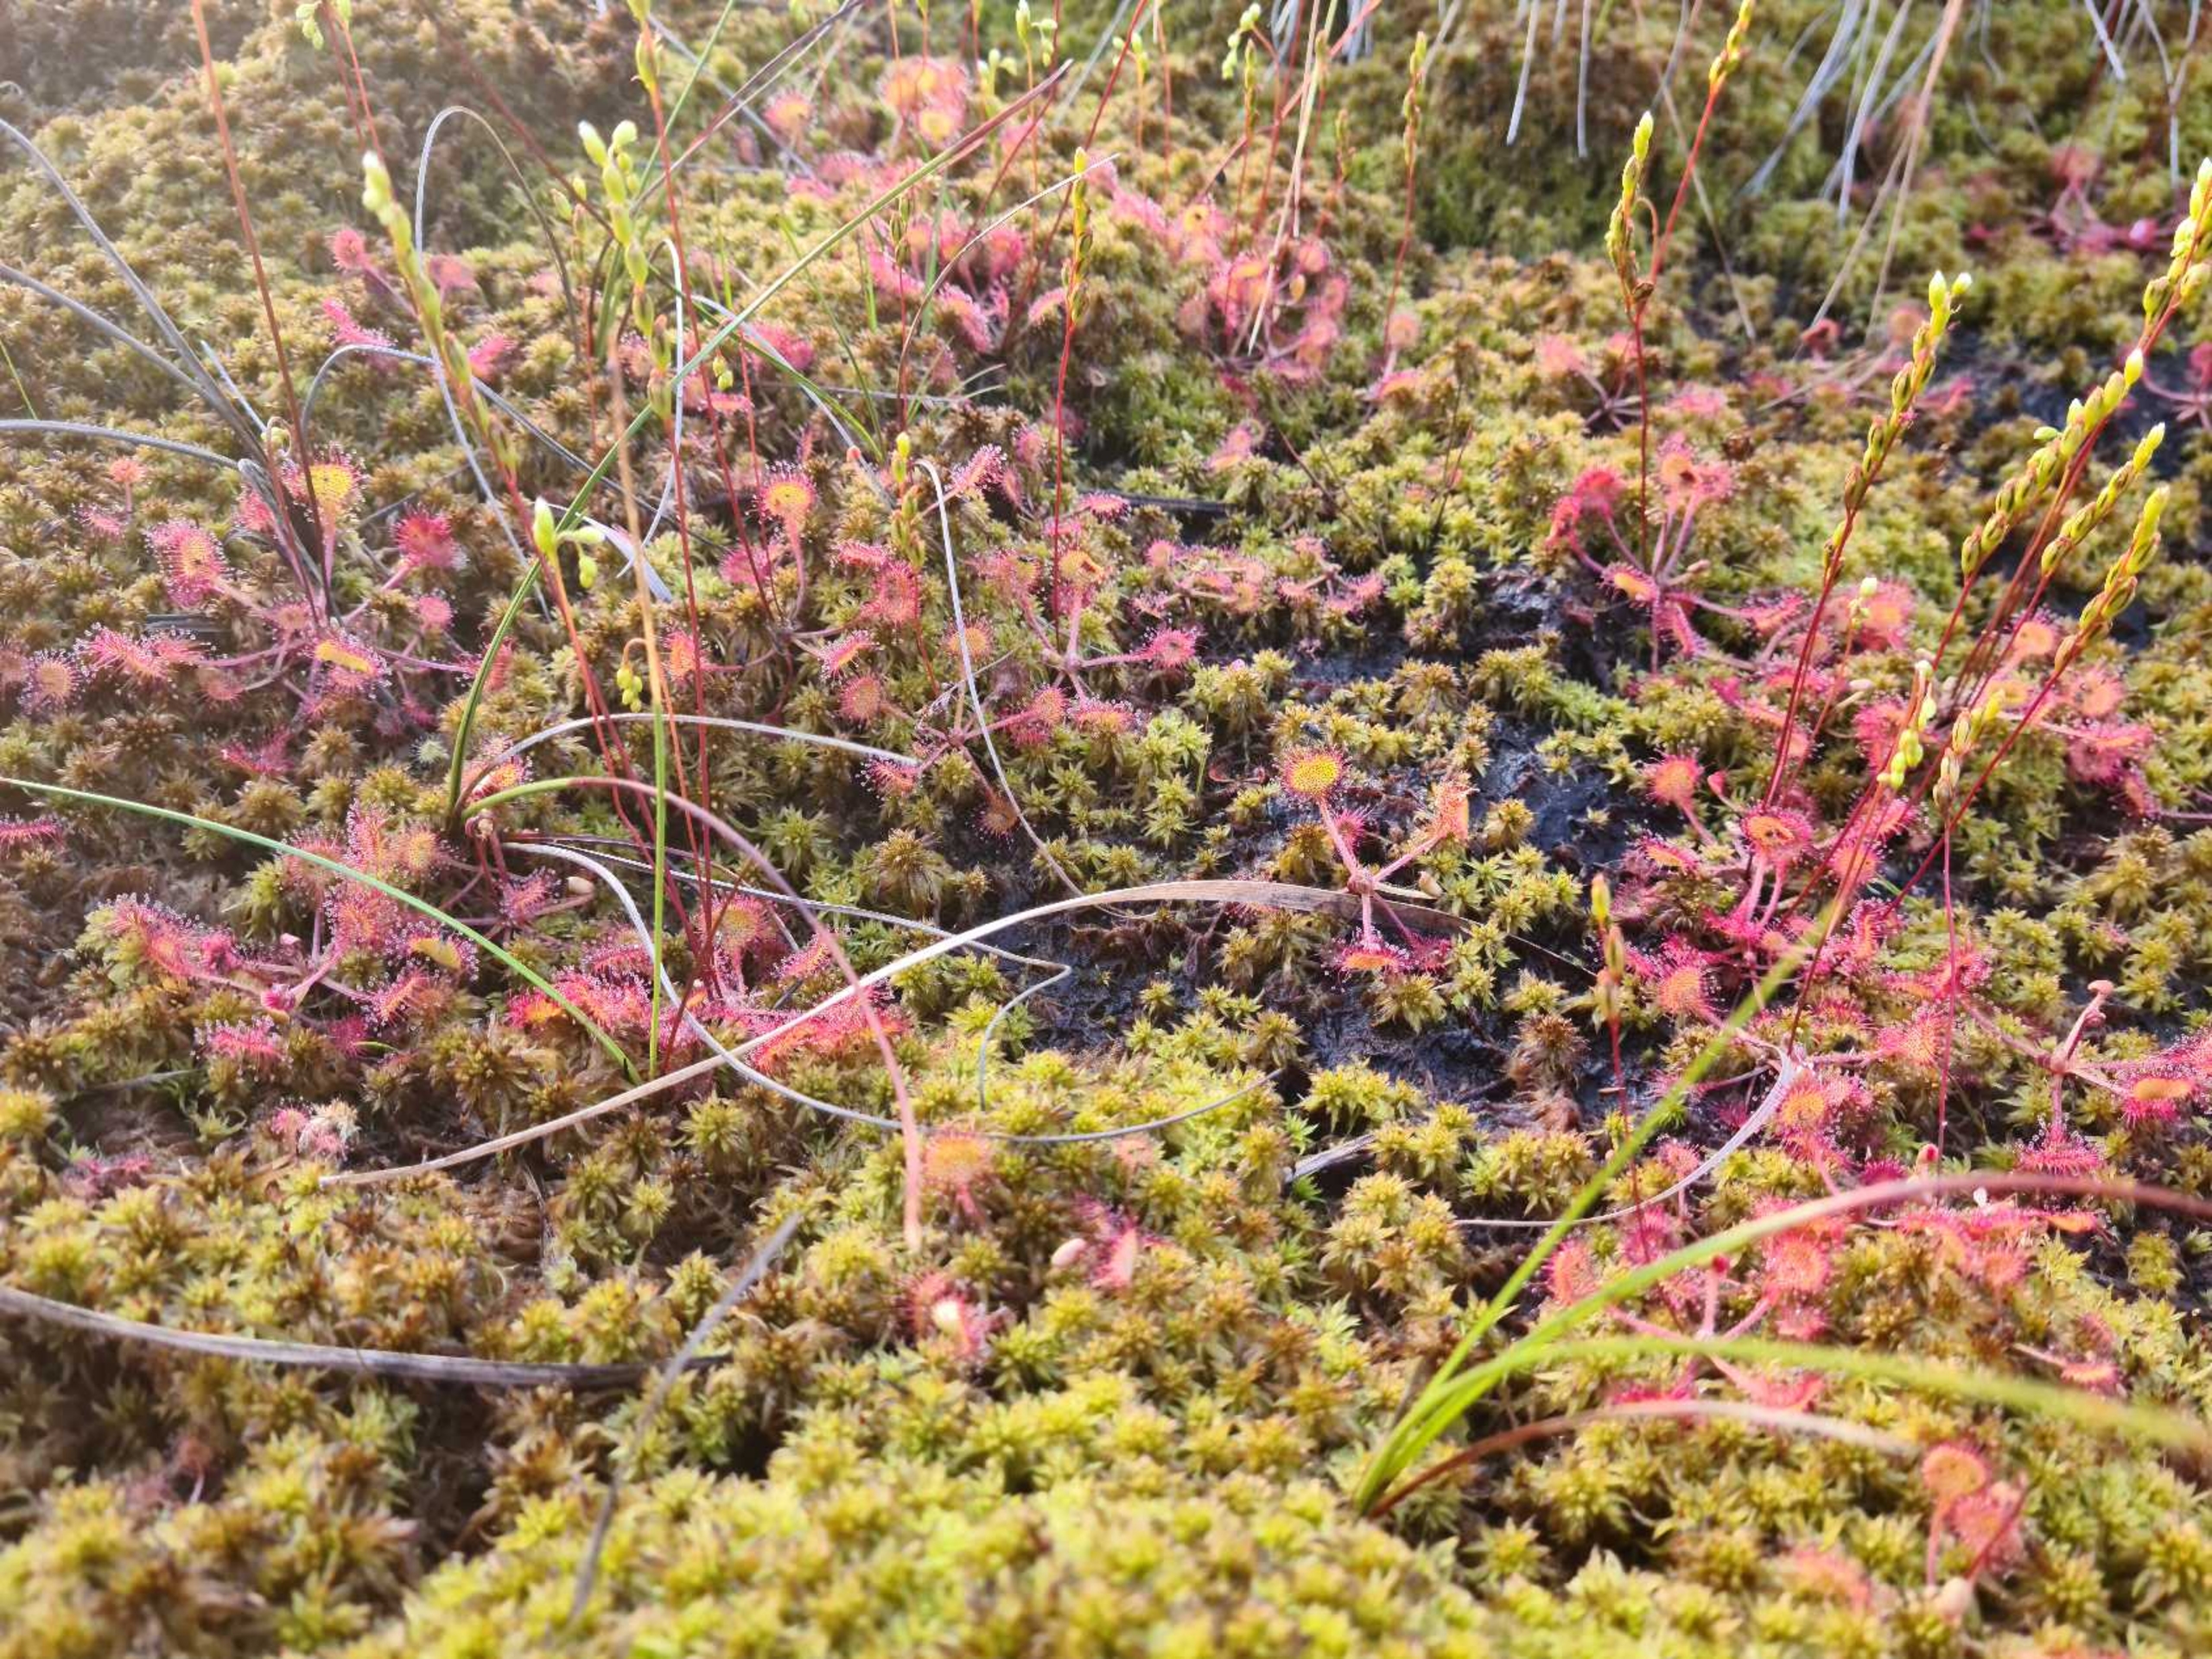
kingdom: Plantae
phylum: Tracheophyta
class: Magnoliopsida
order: Caryophyllales
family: Droseraceae
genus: Drosera
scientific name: Drosera rotundifolia
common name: Rundbladet soldug
